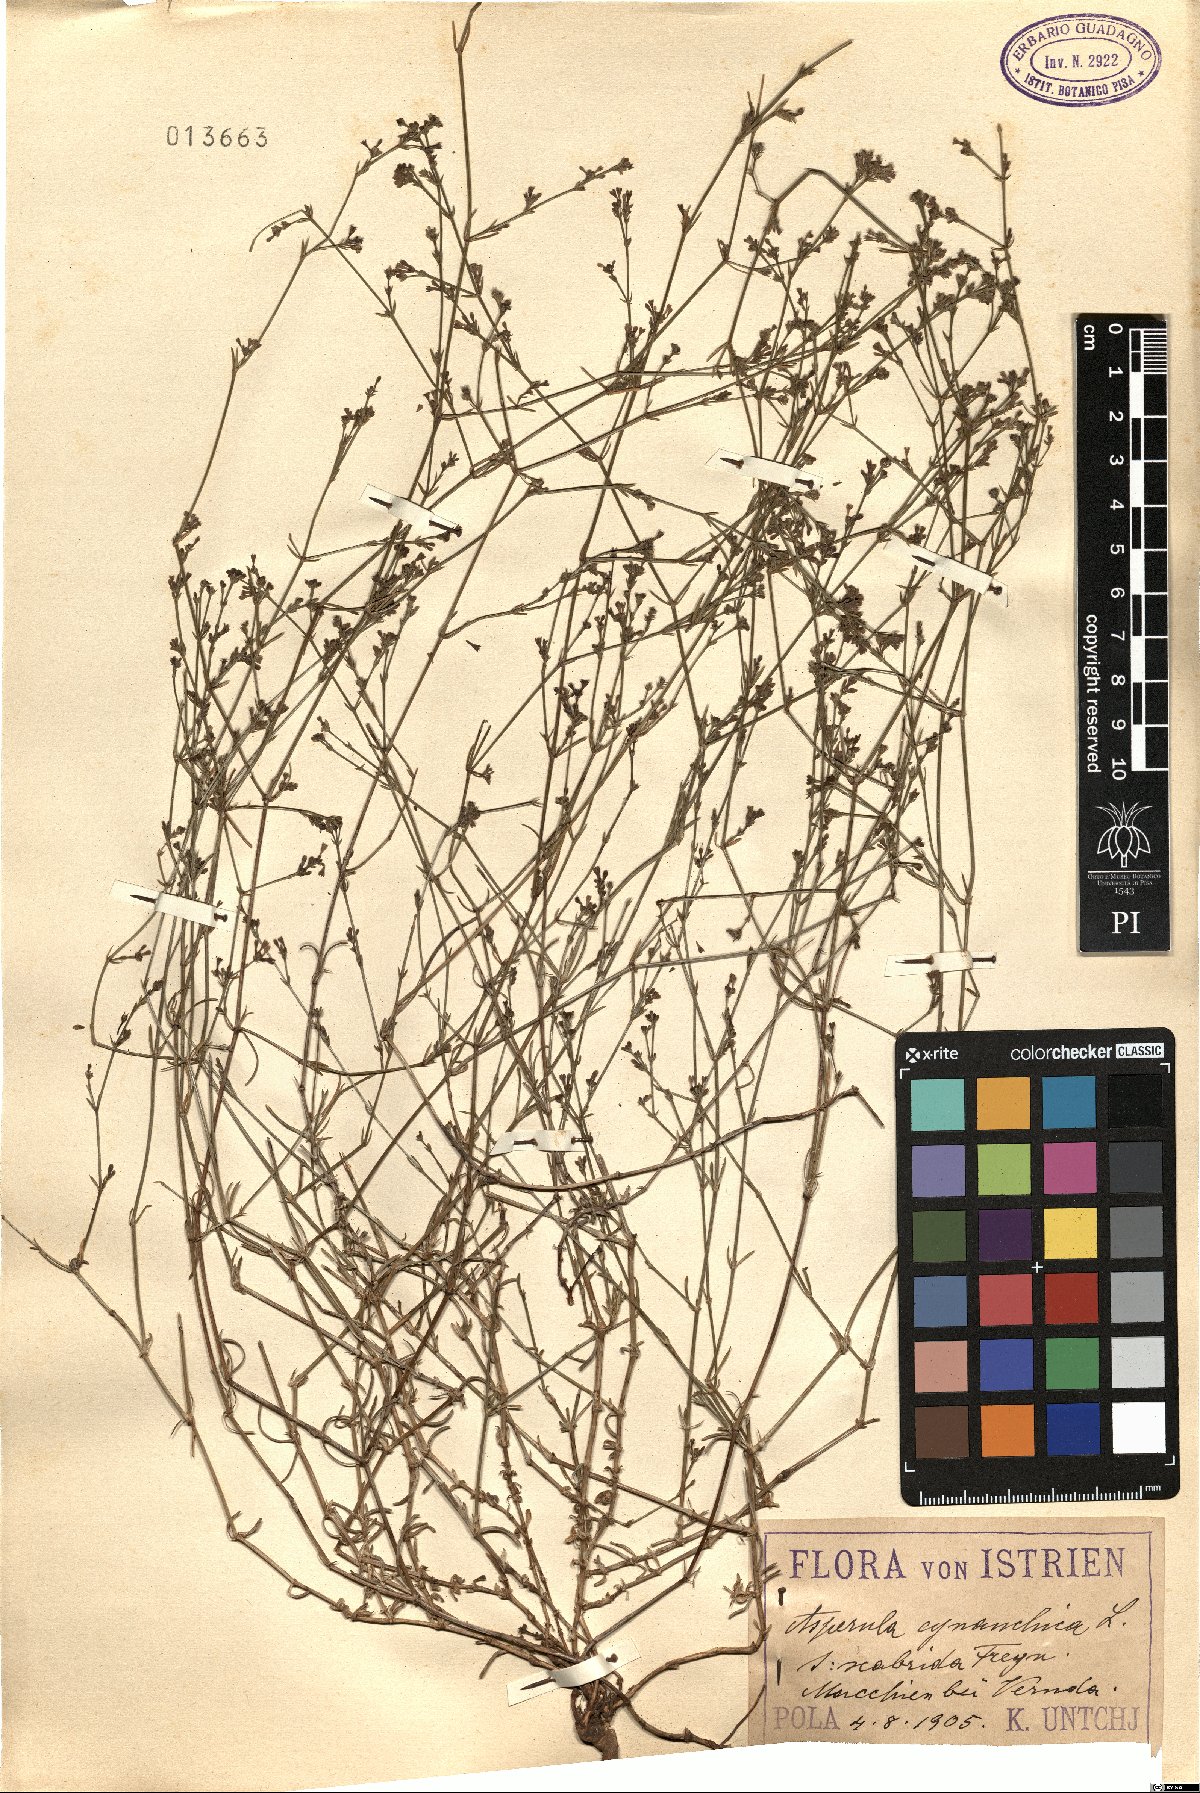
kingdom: Plantae
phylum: Tracheophyta
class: Magnoliopsida
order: Gentianales
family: Rubiaceae
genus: Cynanchica
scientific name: Cynanchica pyrenaica
